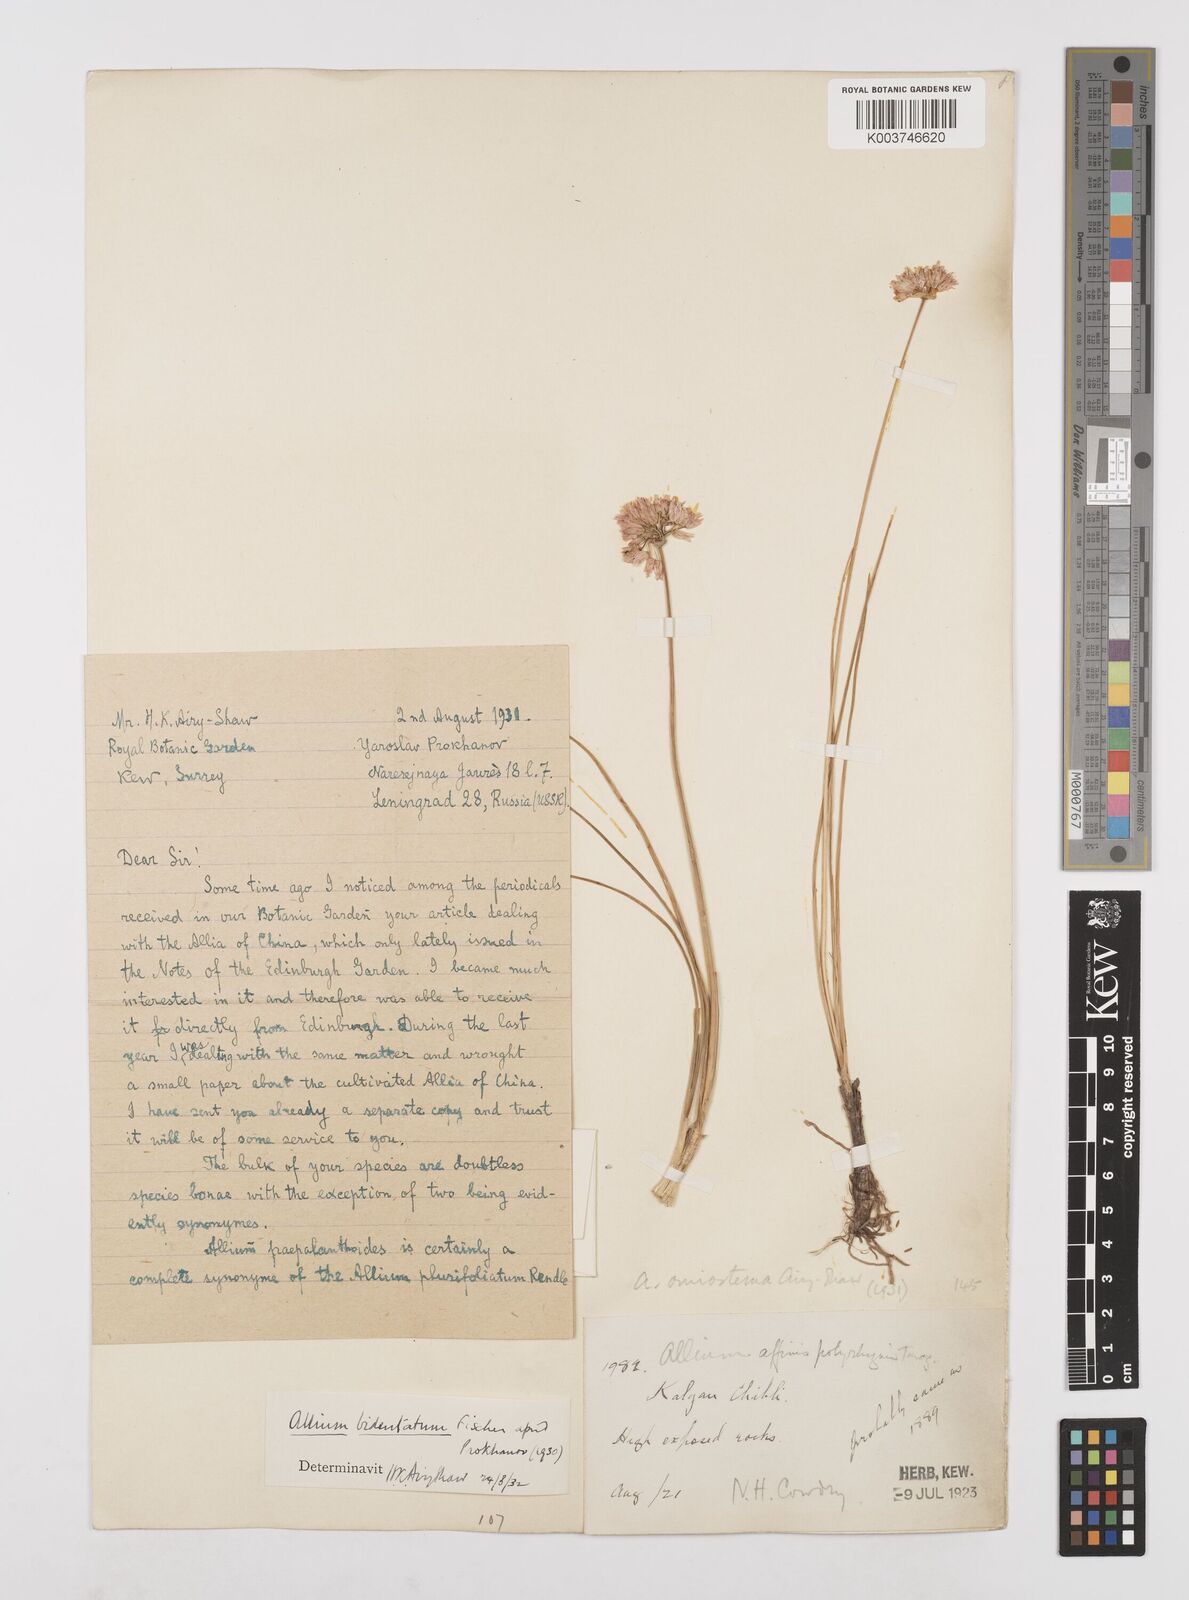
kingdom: Plantae
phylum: Tracheophyta
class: Liliopsida
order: Asparagales
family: Amaryllidaceae
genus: Allium
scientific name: Allium bidentatum
